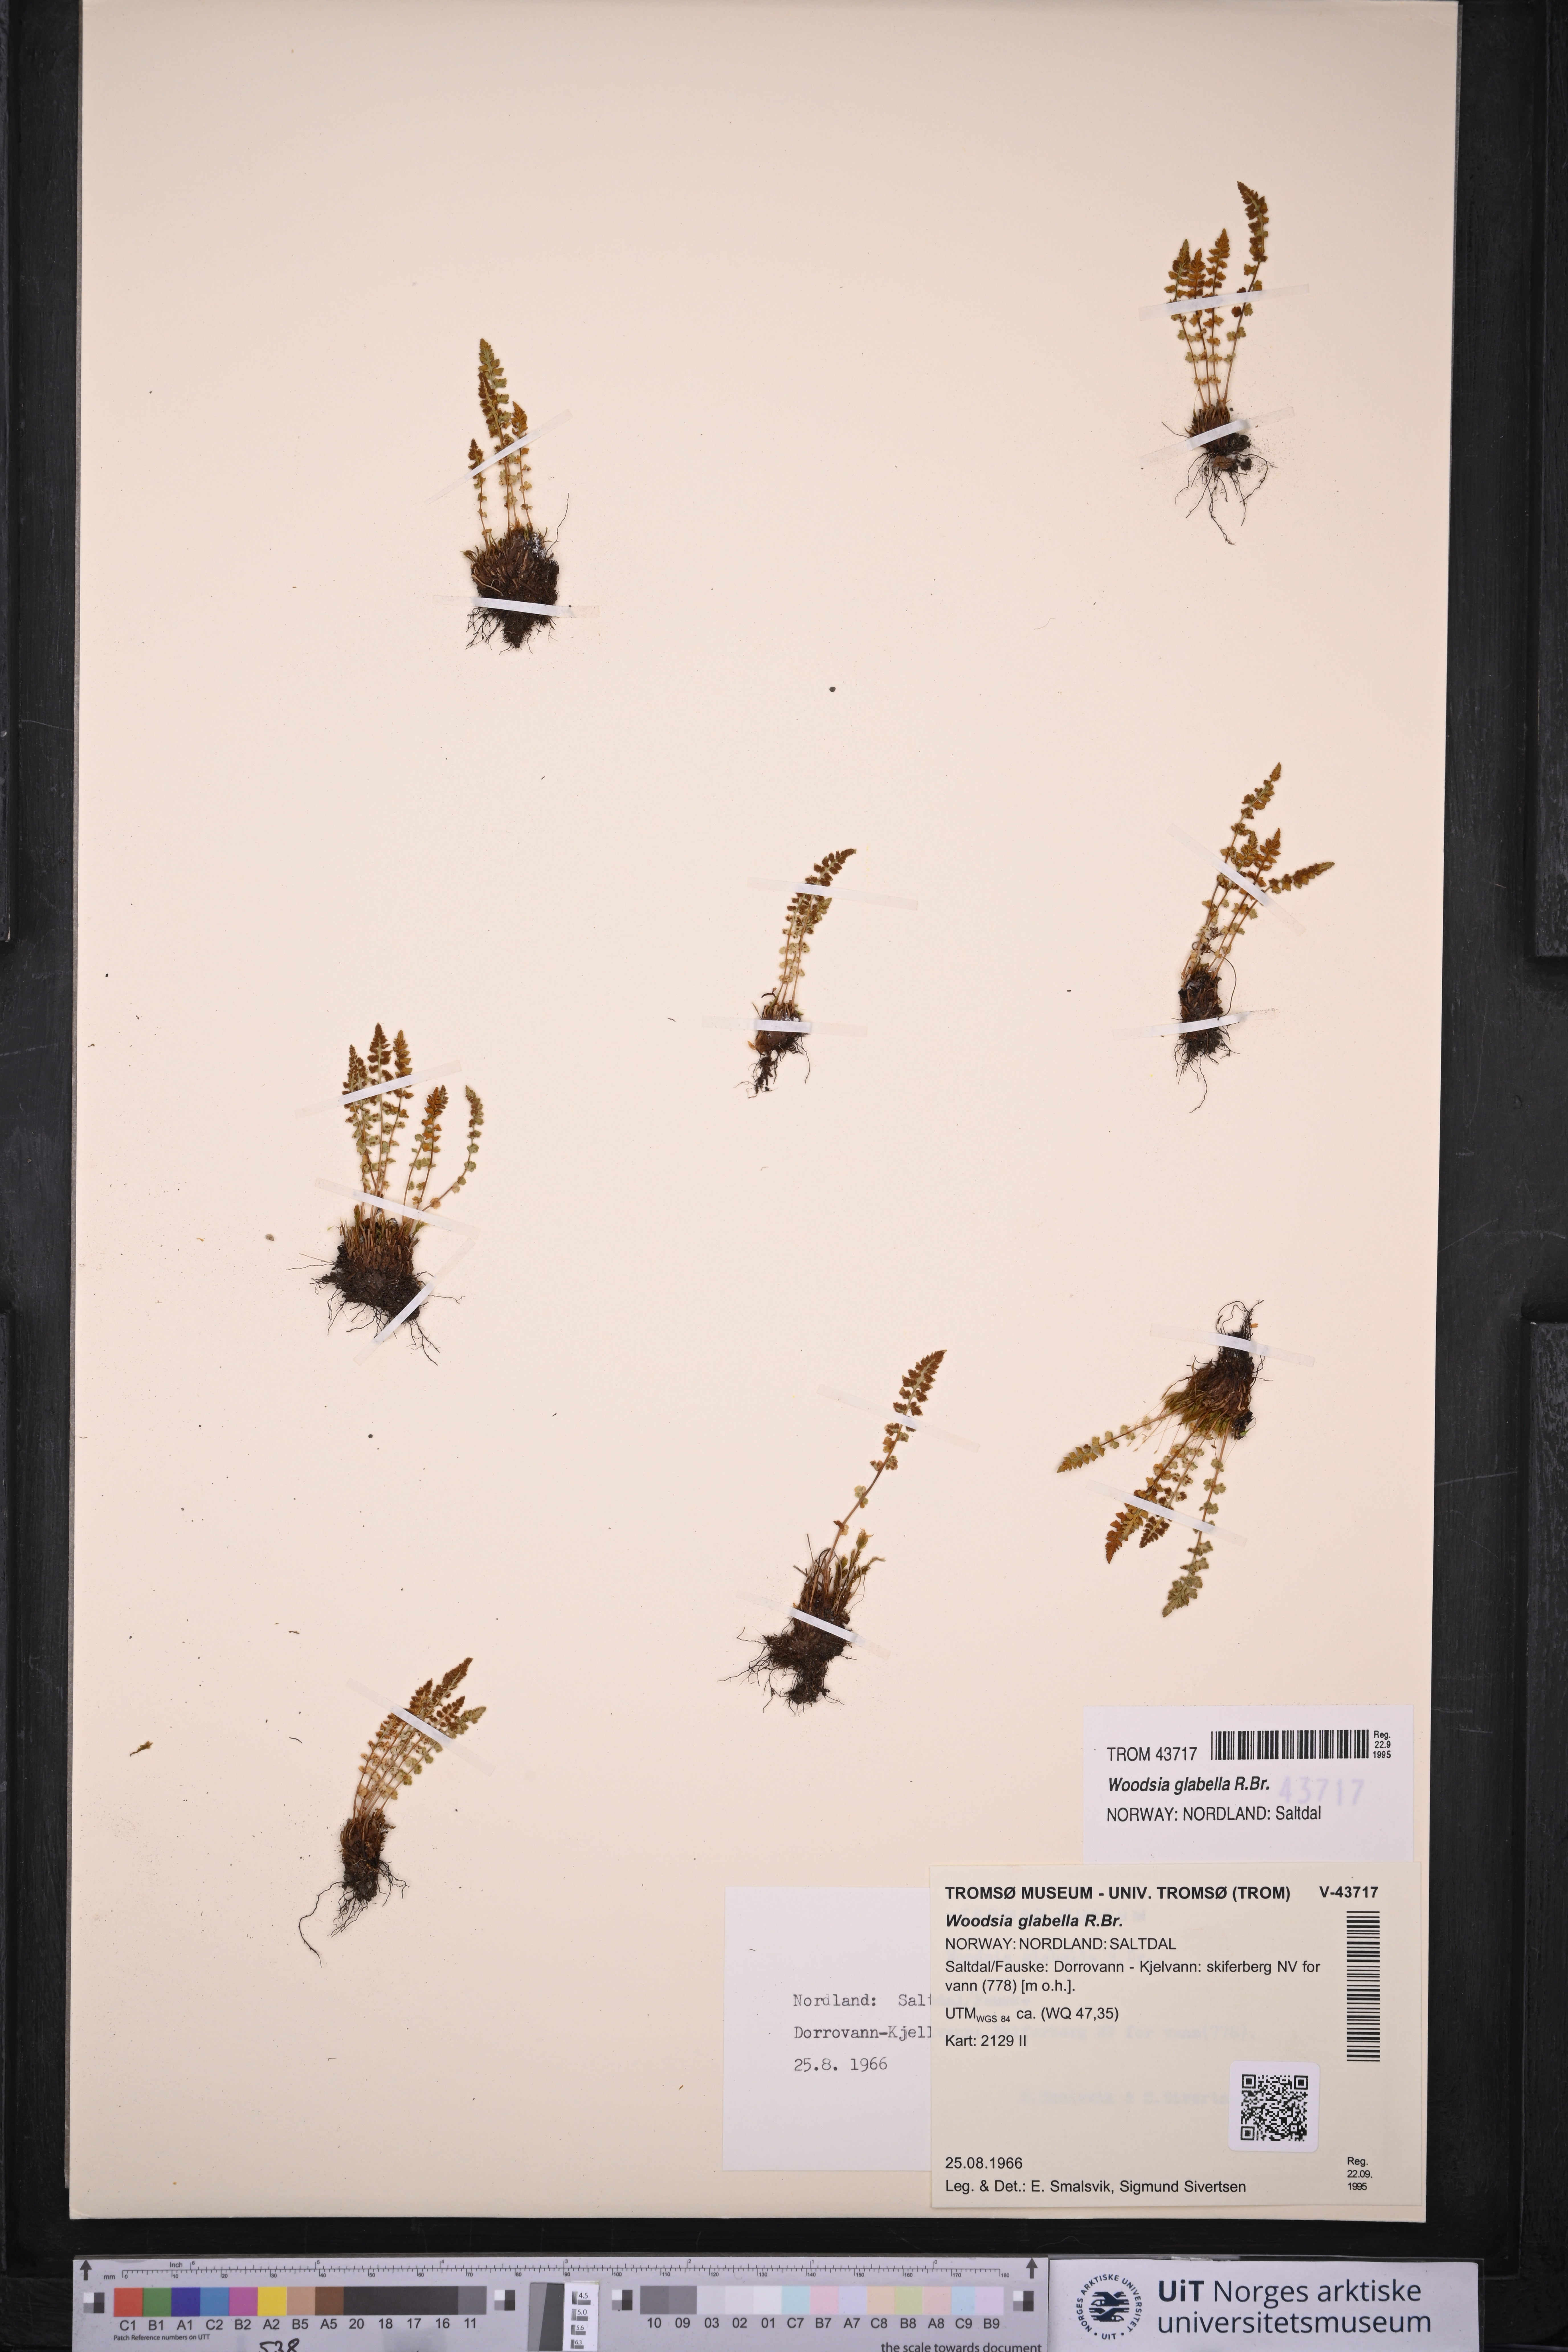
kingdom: Plantae
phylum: Tracheophyta
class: Polypodiopsida
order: Polypodiales
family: Woodsiaceae
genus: Woodsia
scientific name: Woodsia glabella
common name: Smooth woodsia
